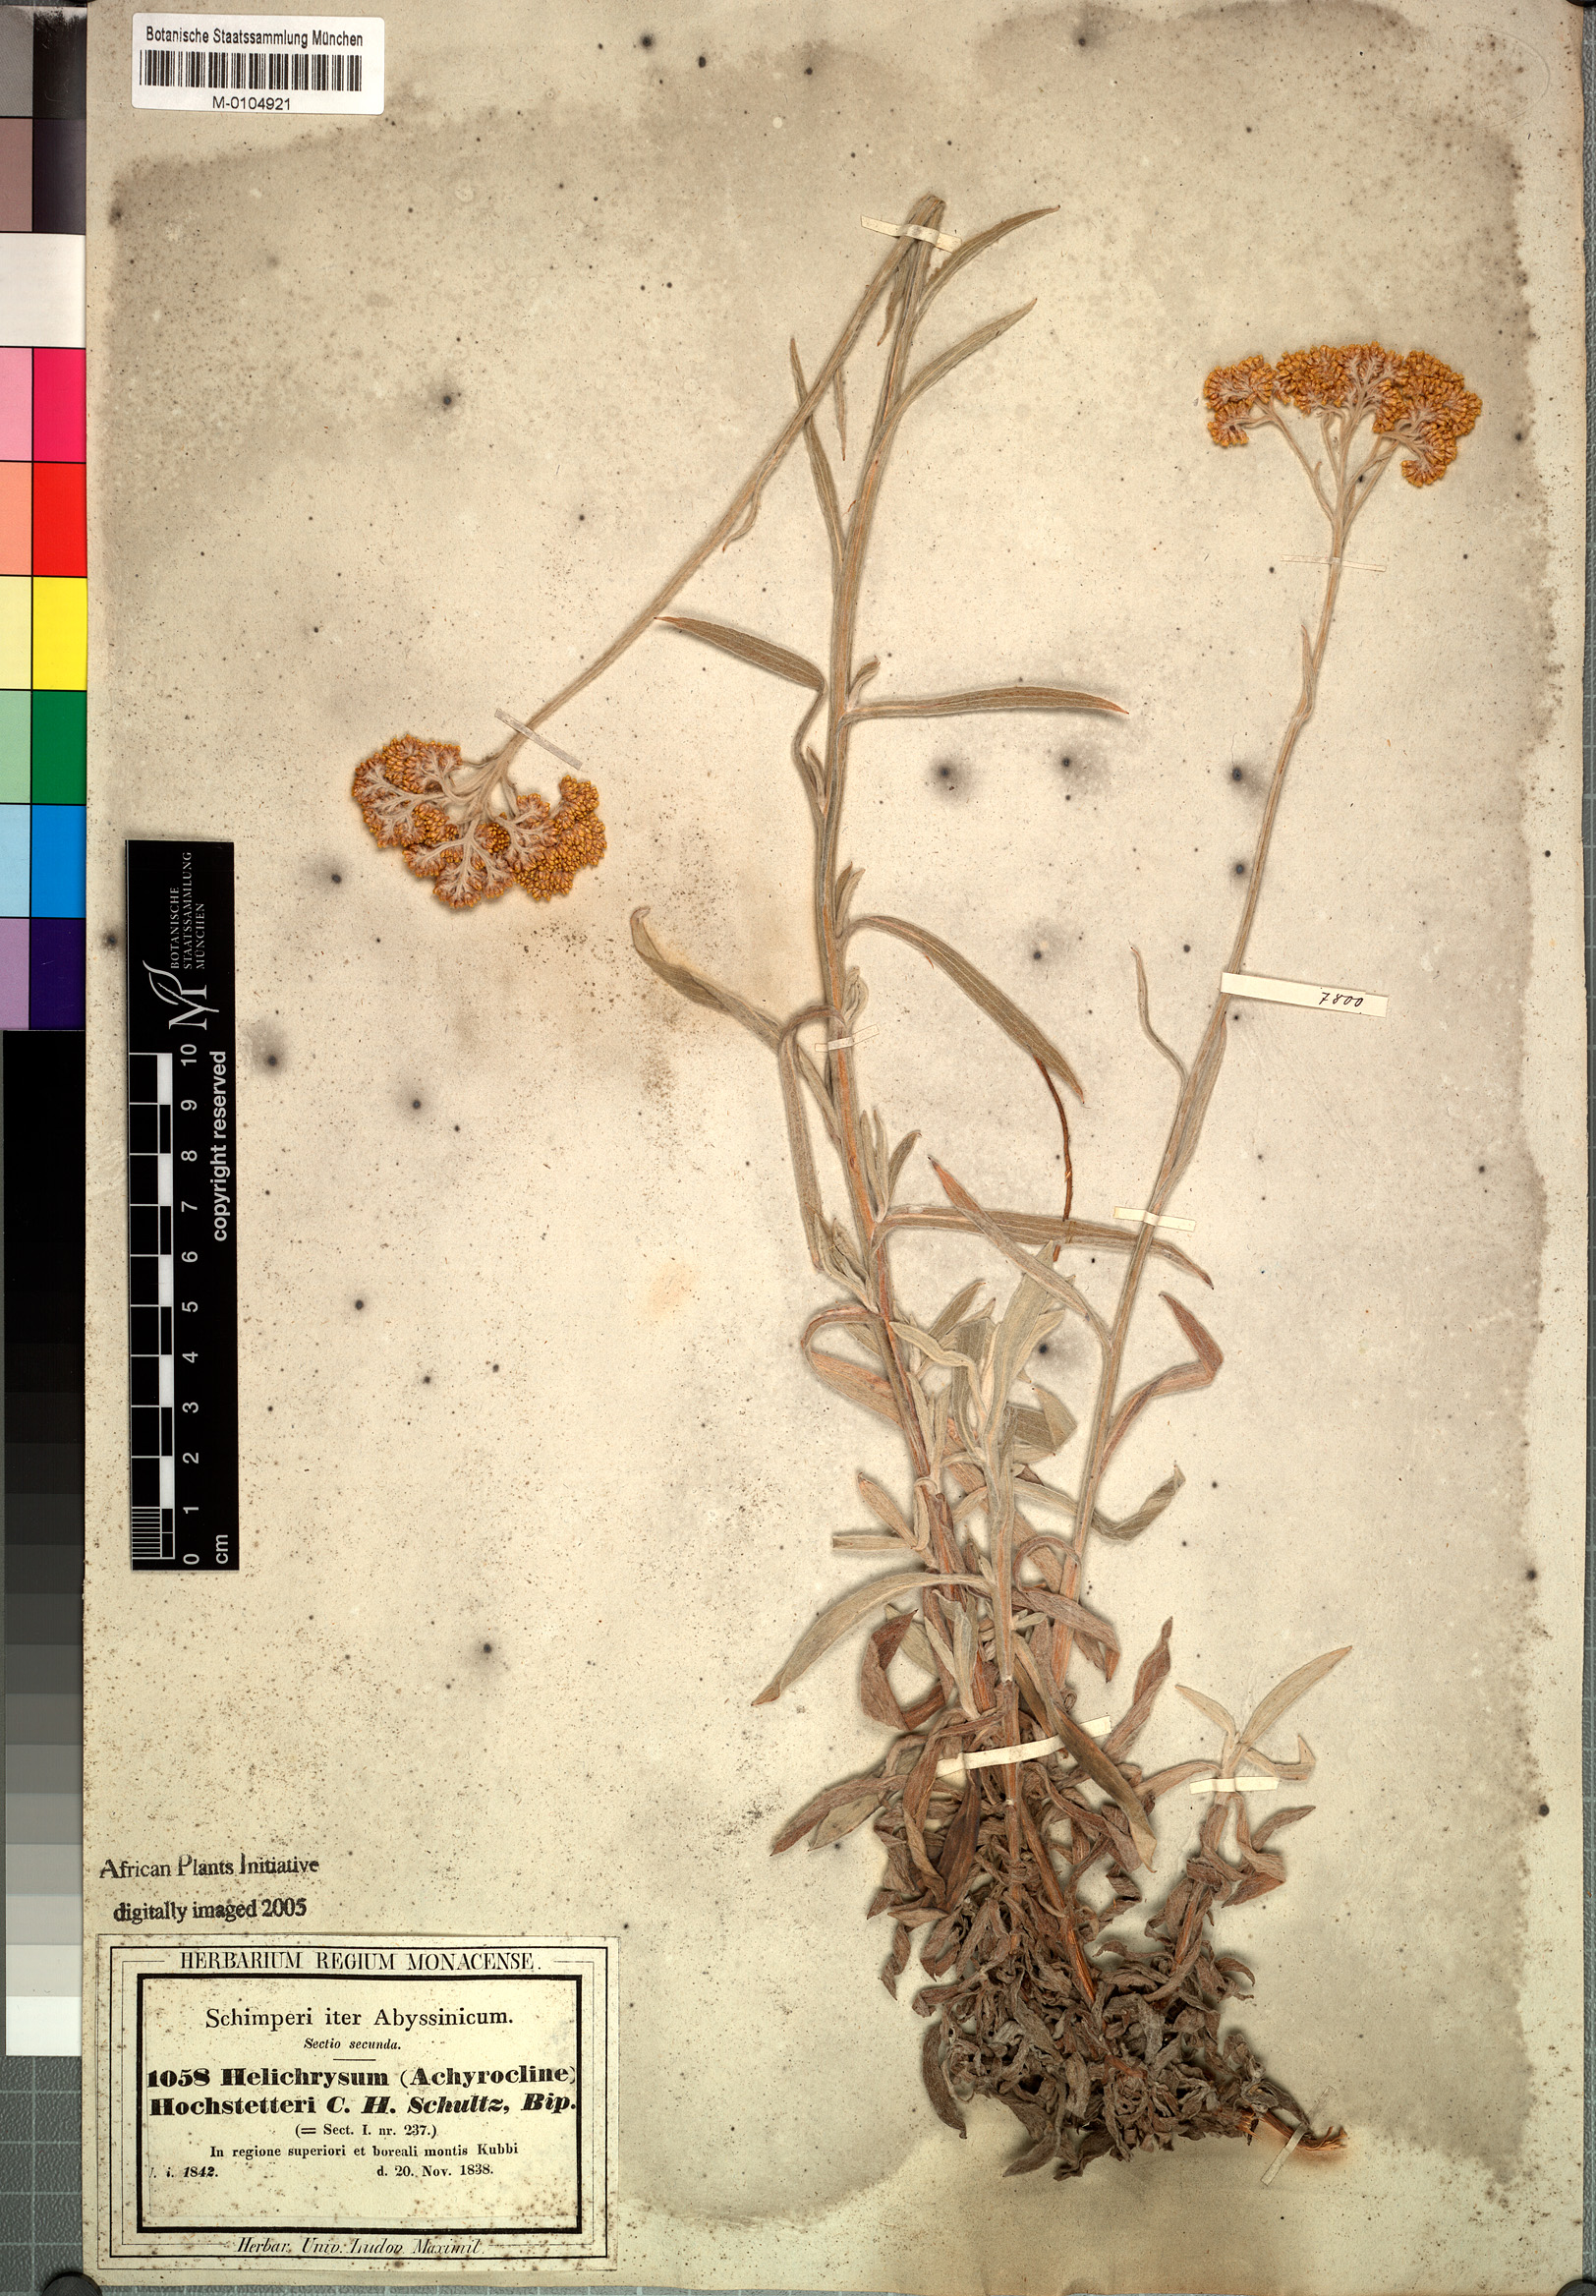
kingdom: Plantae
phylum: Tracheophyta
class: Magnoliopsida
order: Asterales
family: Asteraceae
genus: Helichrysum
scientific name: Helichrysum stenopterum
